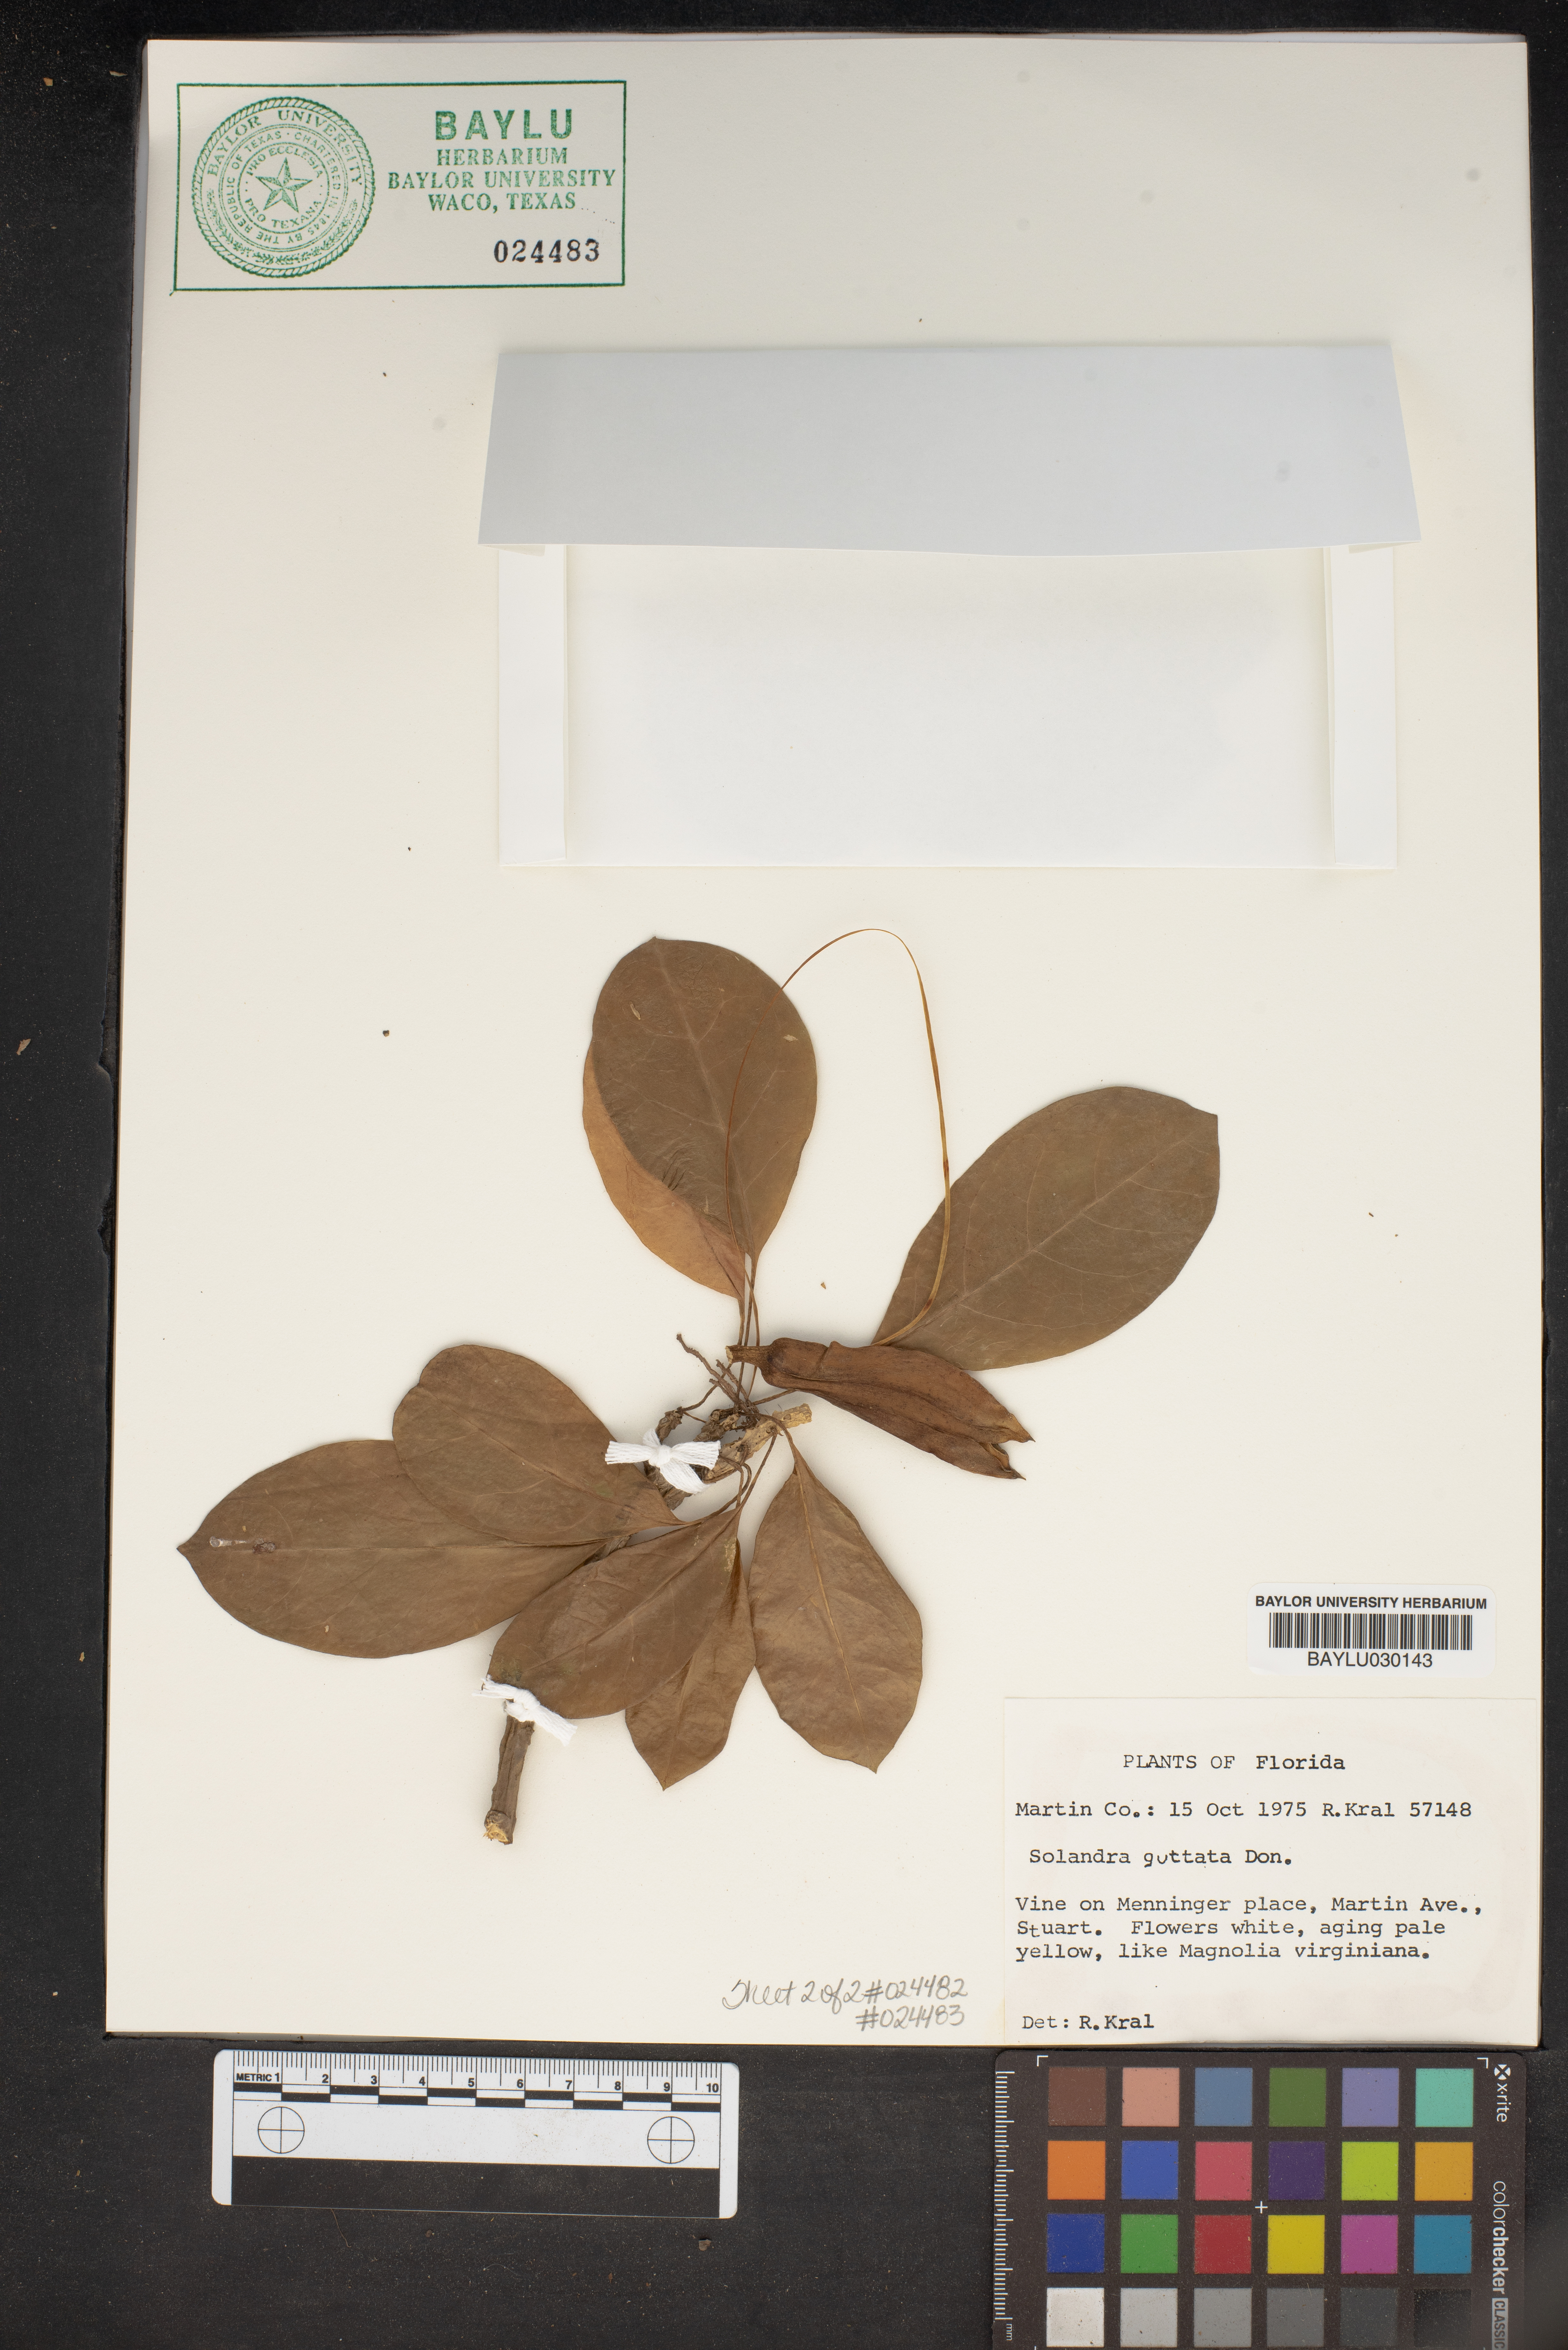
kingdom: Plantae
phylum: Tracheophyta
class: Magnoliopsida
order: Solanales
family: Solanaceae
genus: Solandra
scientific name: Solandra guttata
